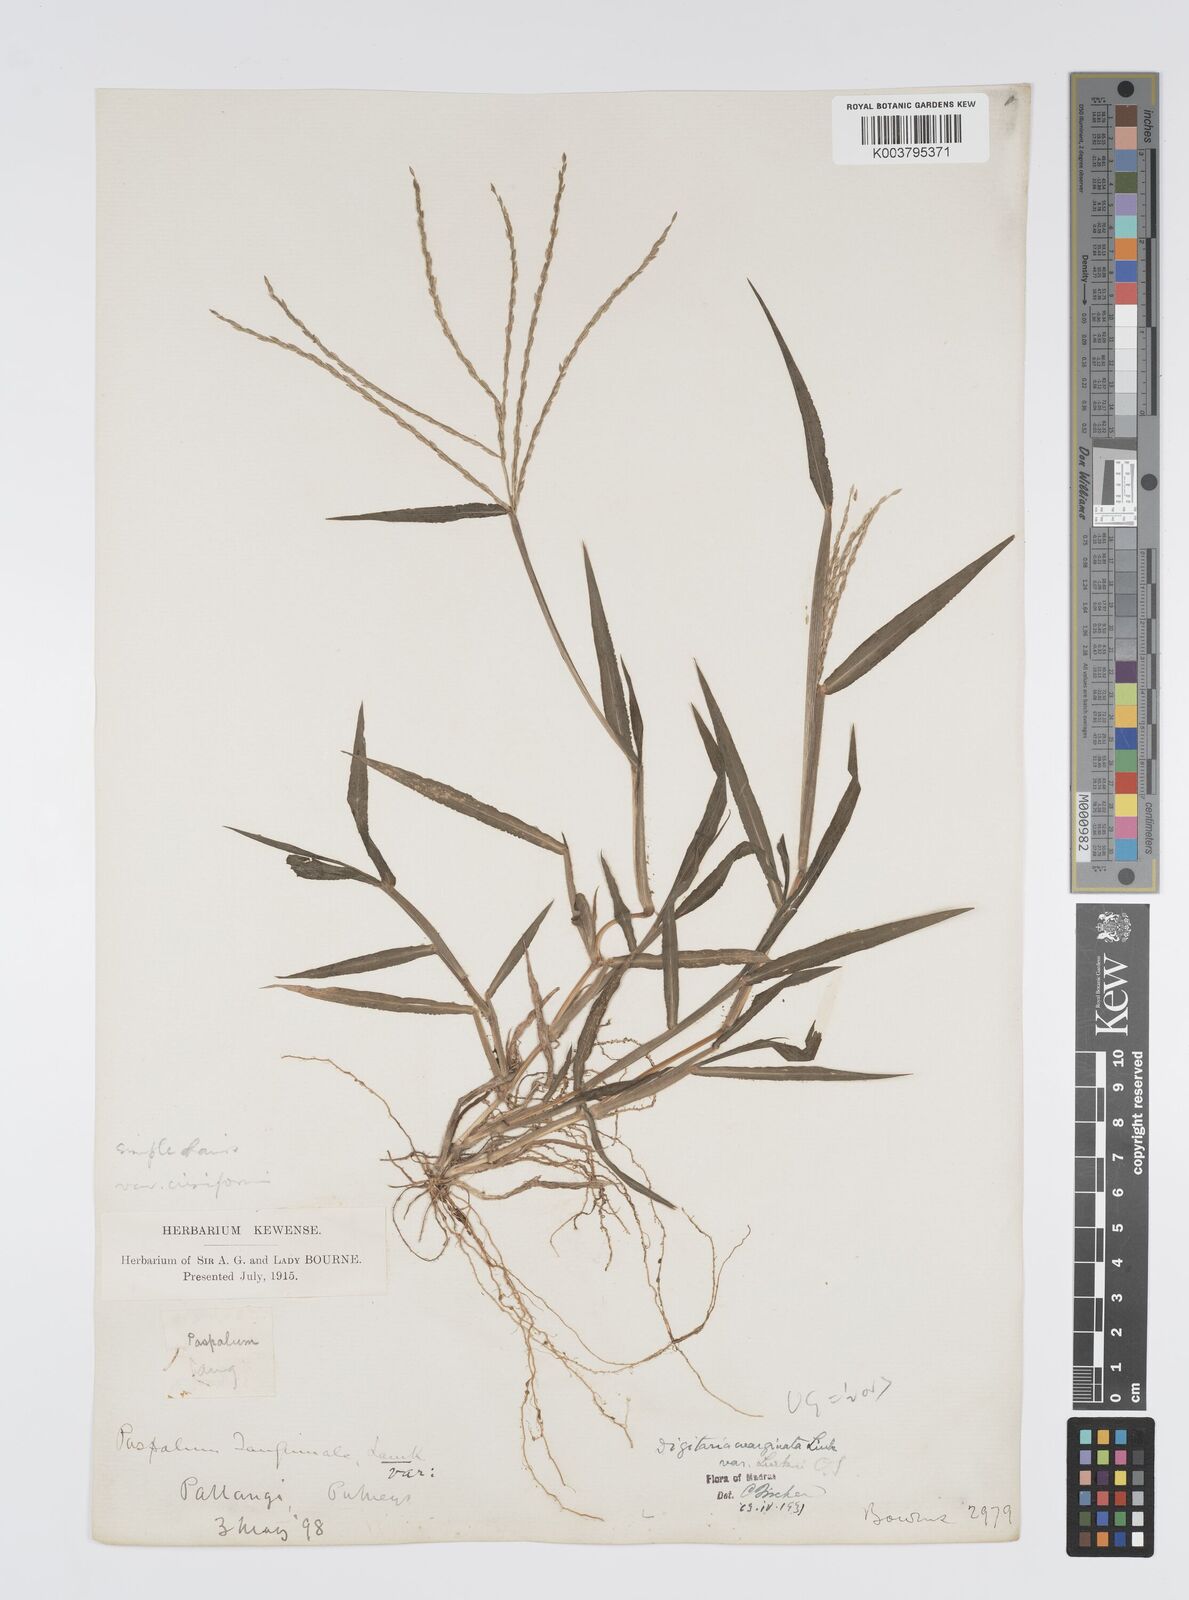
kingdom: Plantae
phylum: Tracheophyta
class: Liliopsida
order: Poales
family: Poaceae
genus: Digitaria
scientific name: Digitaria ciliaris
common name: Tropical finger-grass
